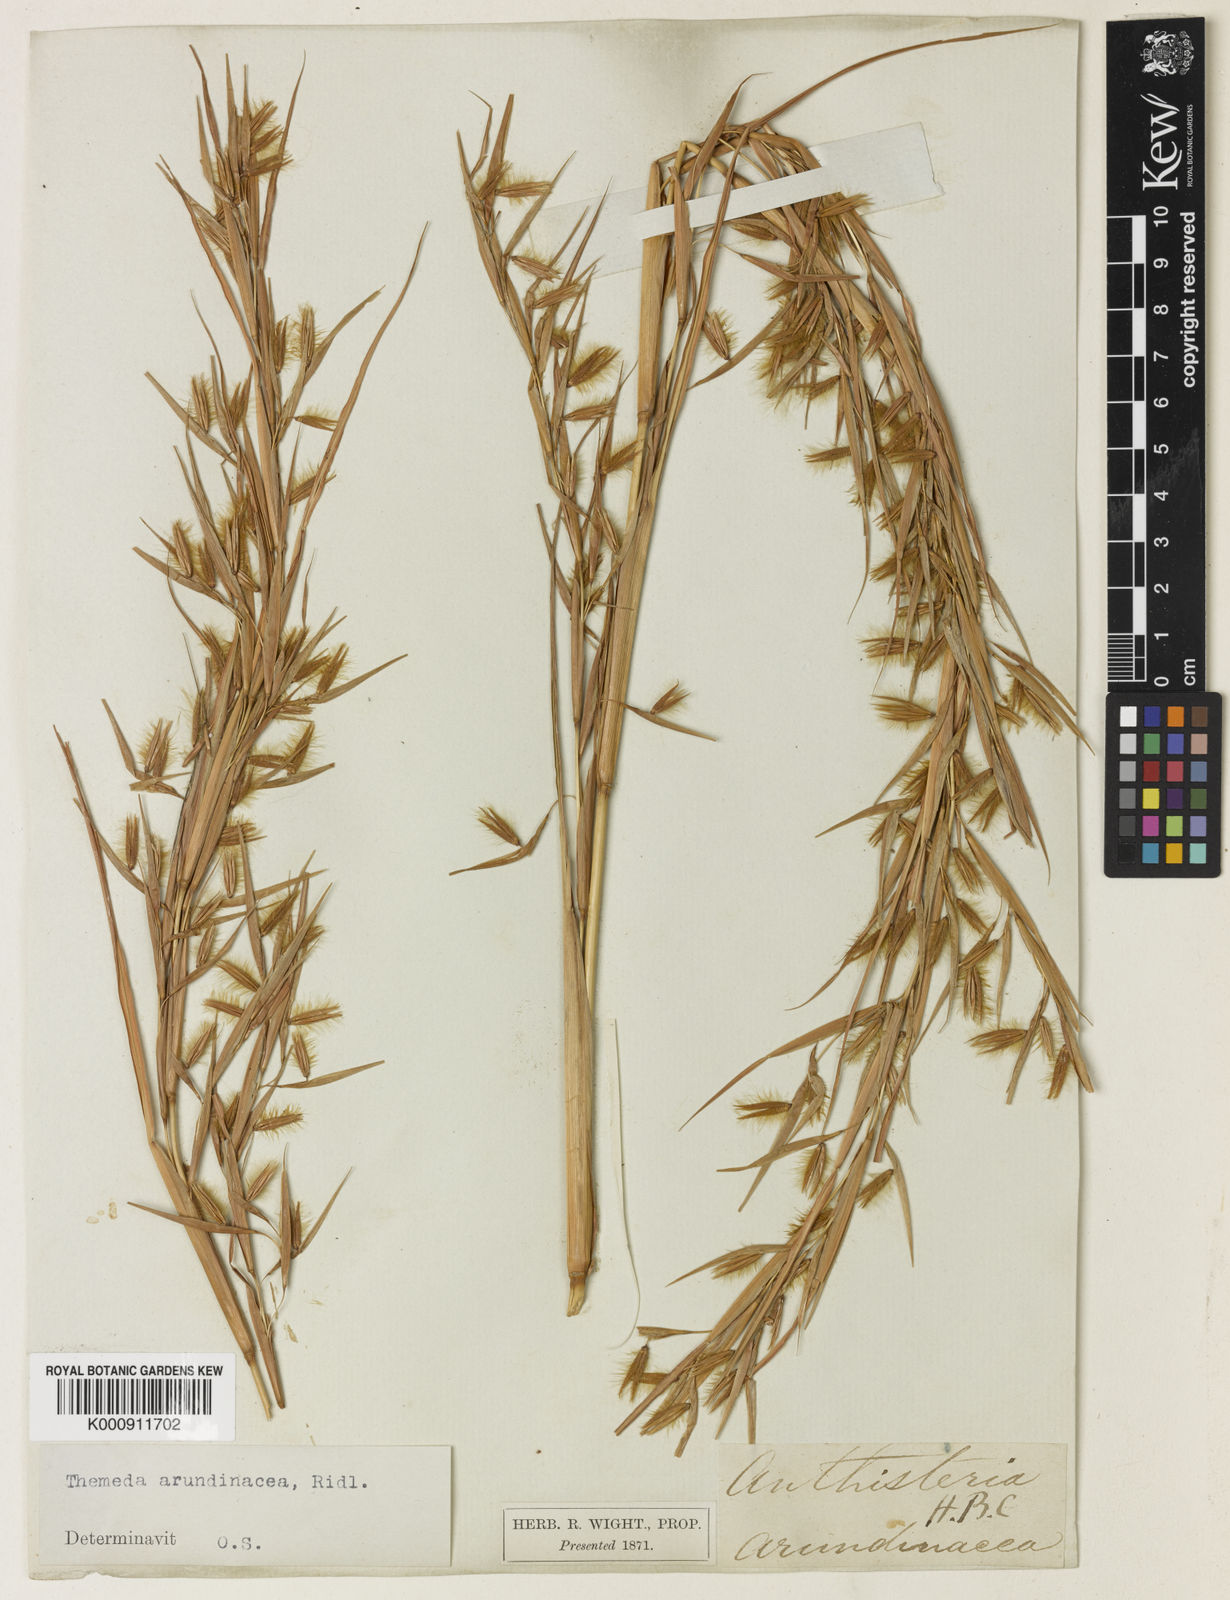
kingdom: Plantae
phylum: Tracheophyta
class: Liliopsida
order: Poales
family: Poaceae
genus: Themeda
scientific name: Themeda
